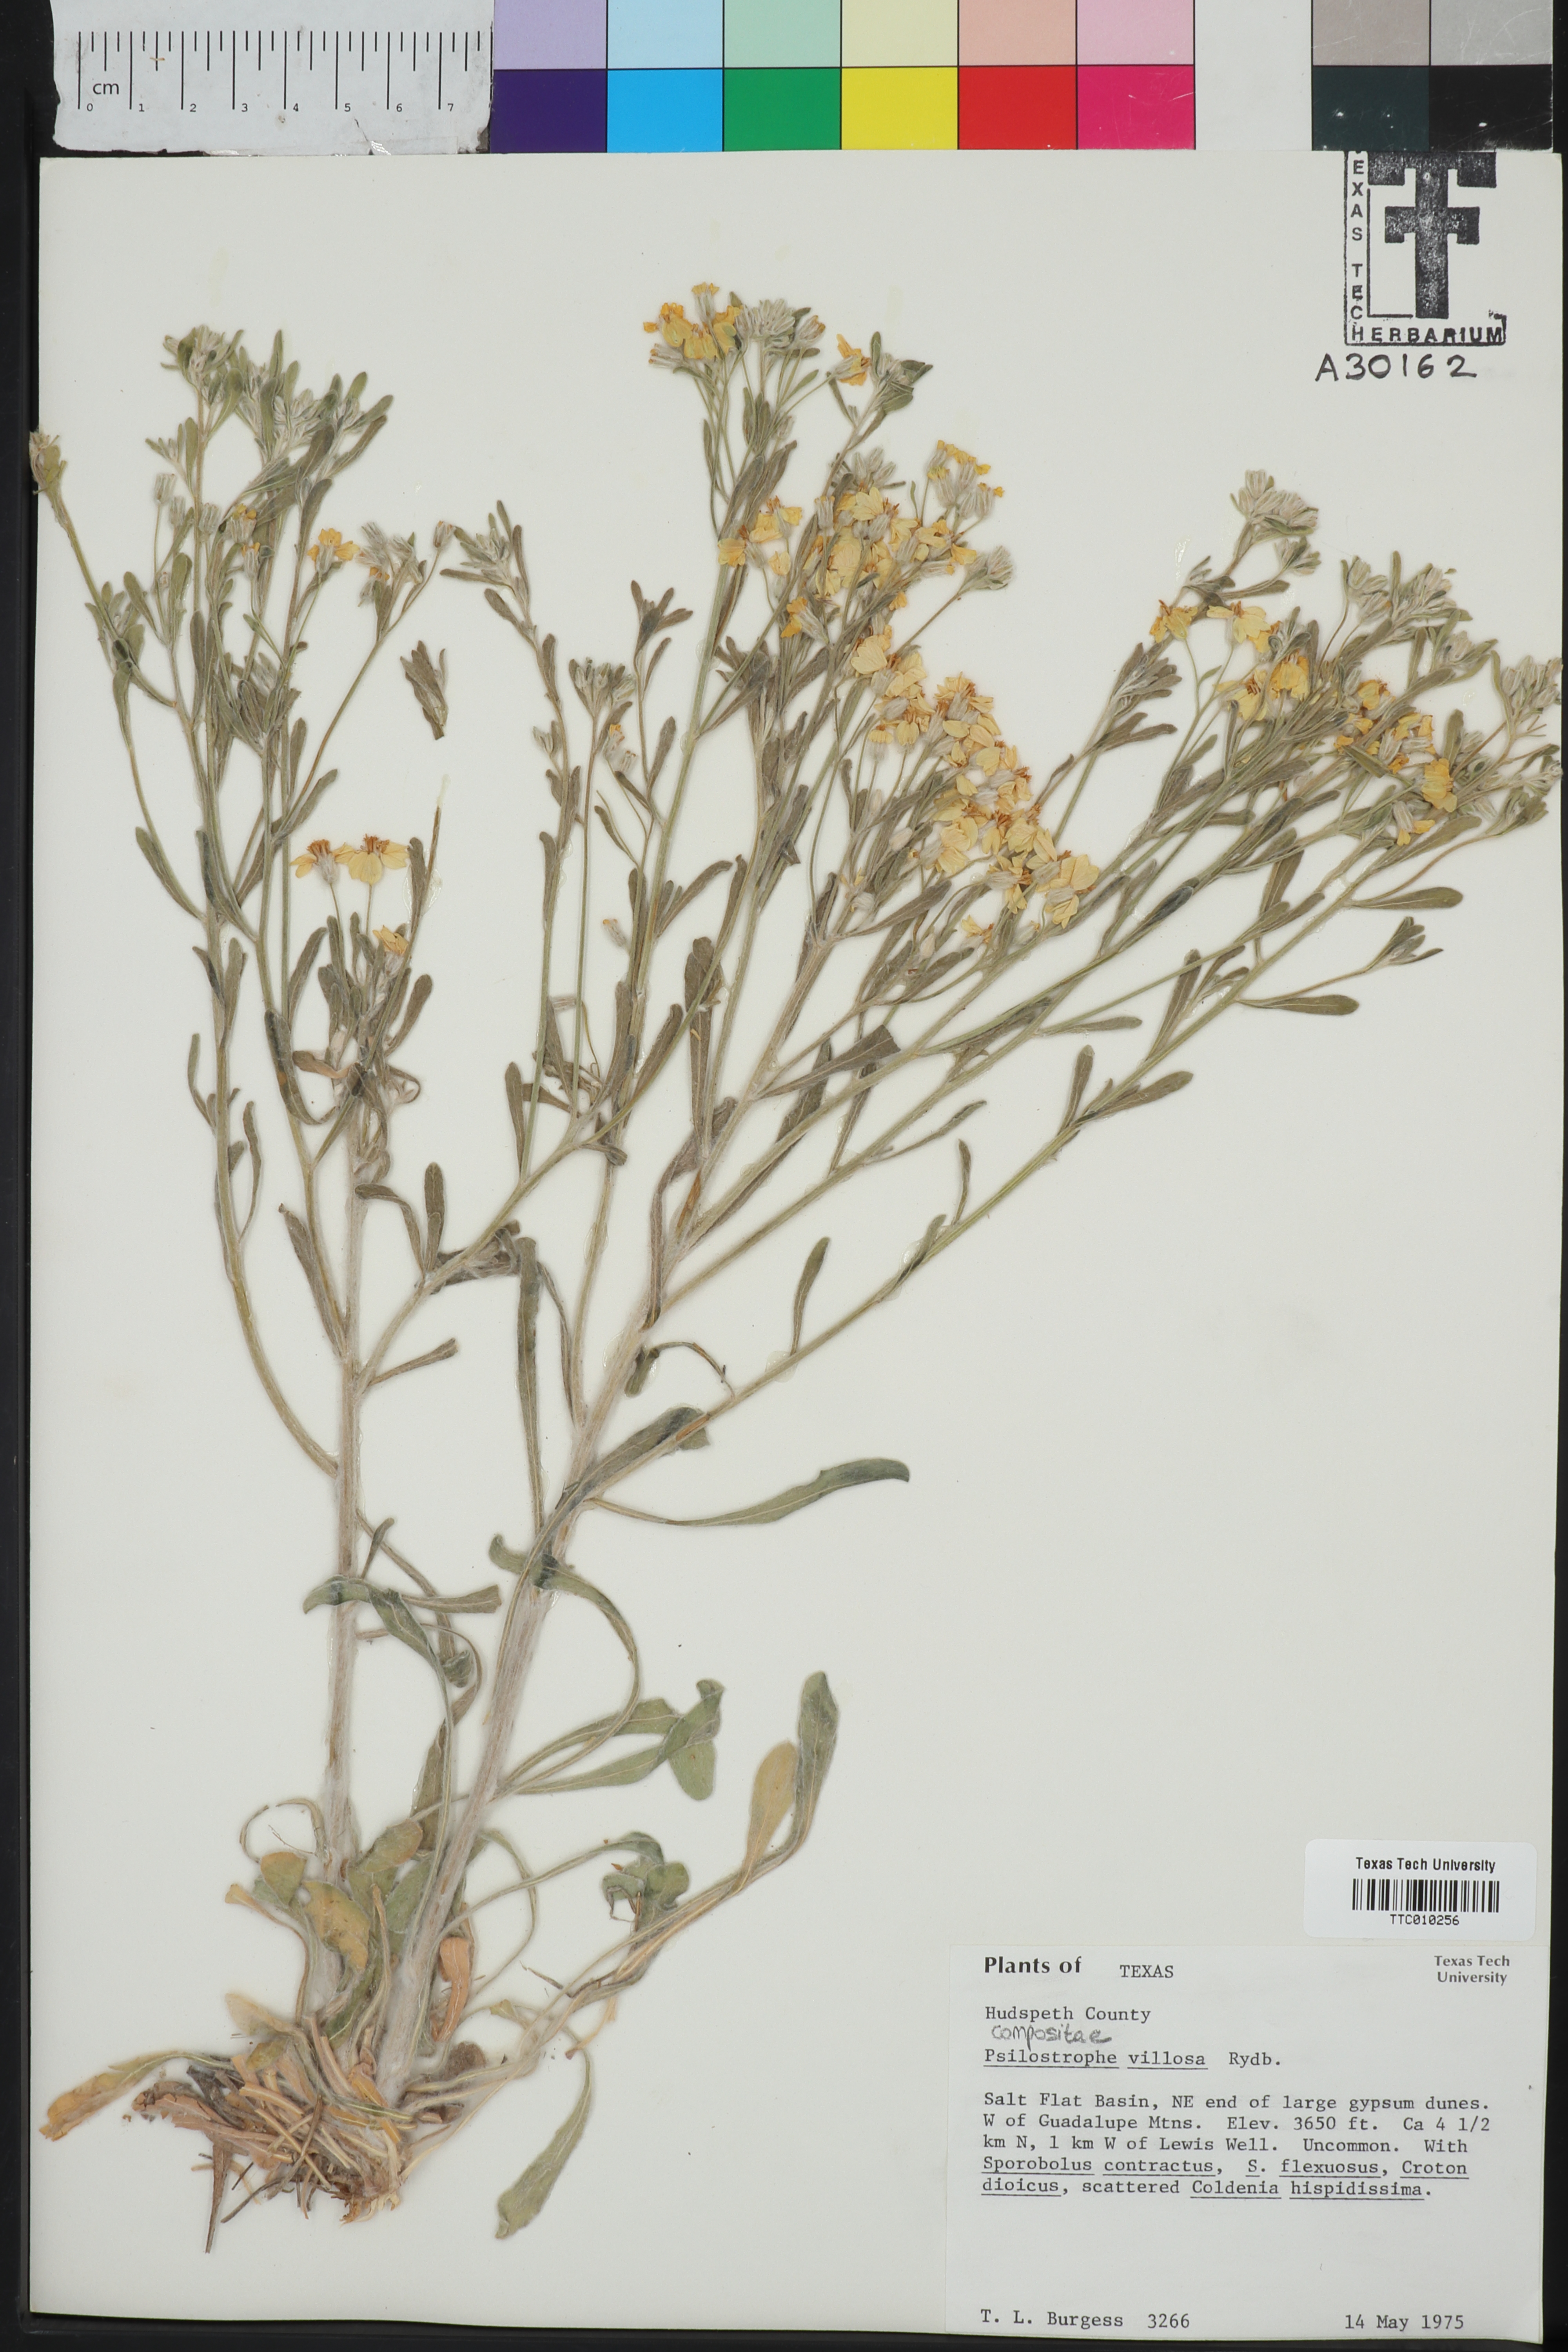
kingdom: Plantae
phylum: Tracheophyta
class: Magnoliopsida
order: Asterales
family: Asteraceae
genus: Psilostrophe
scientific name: Psilostrophe villosa
